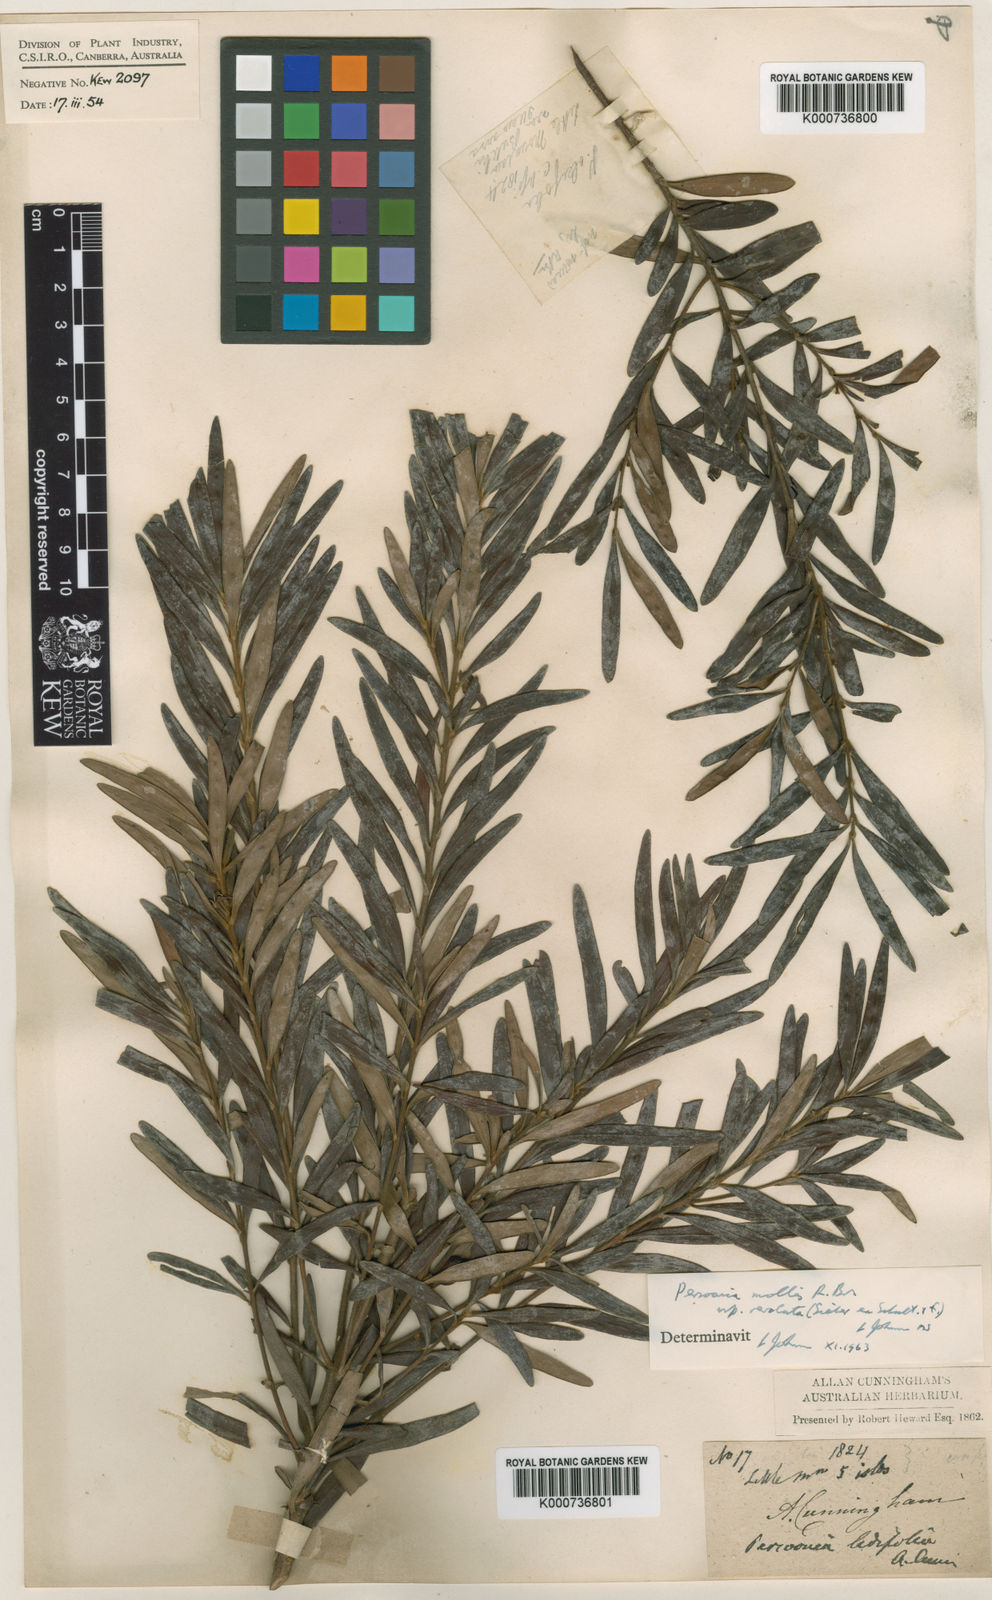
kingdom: Plantae
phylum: Tracheophyta
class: Magnoliopsida
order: Proteales
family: Proteaceae
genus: Persoonia
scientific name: Persoonia mollis
